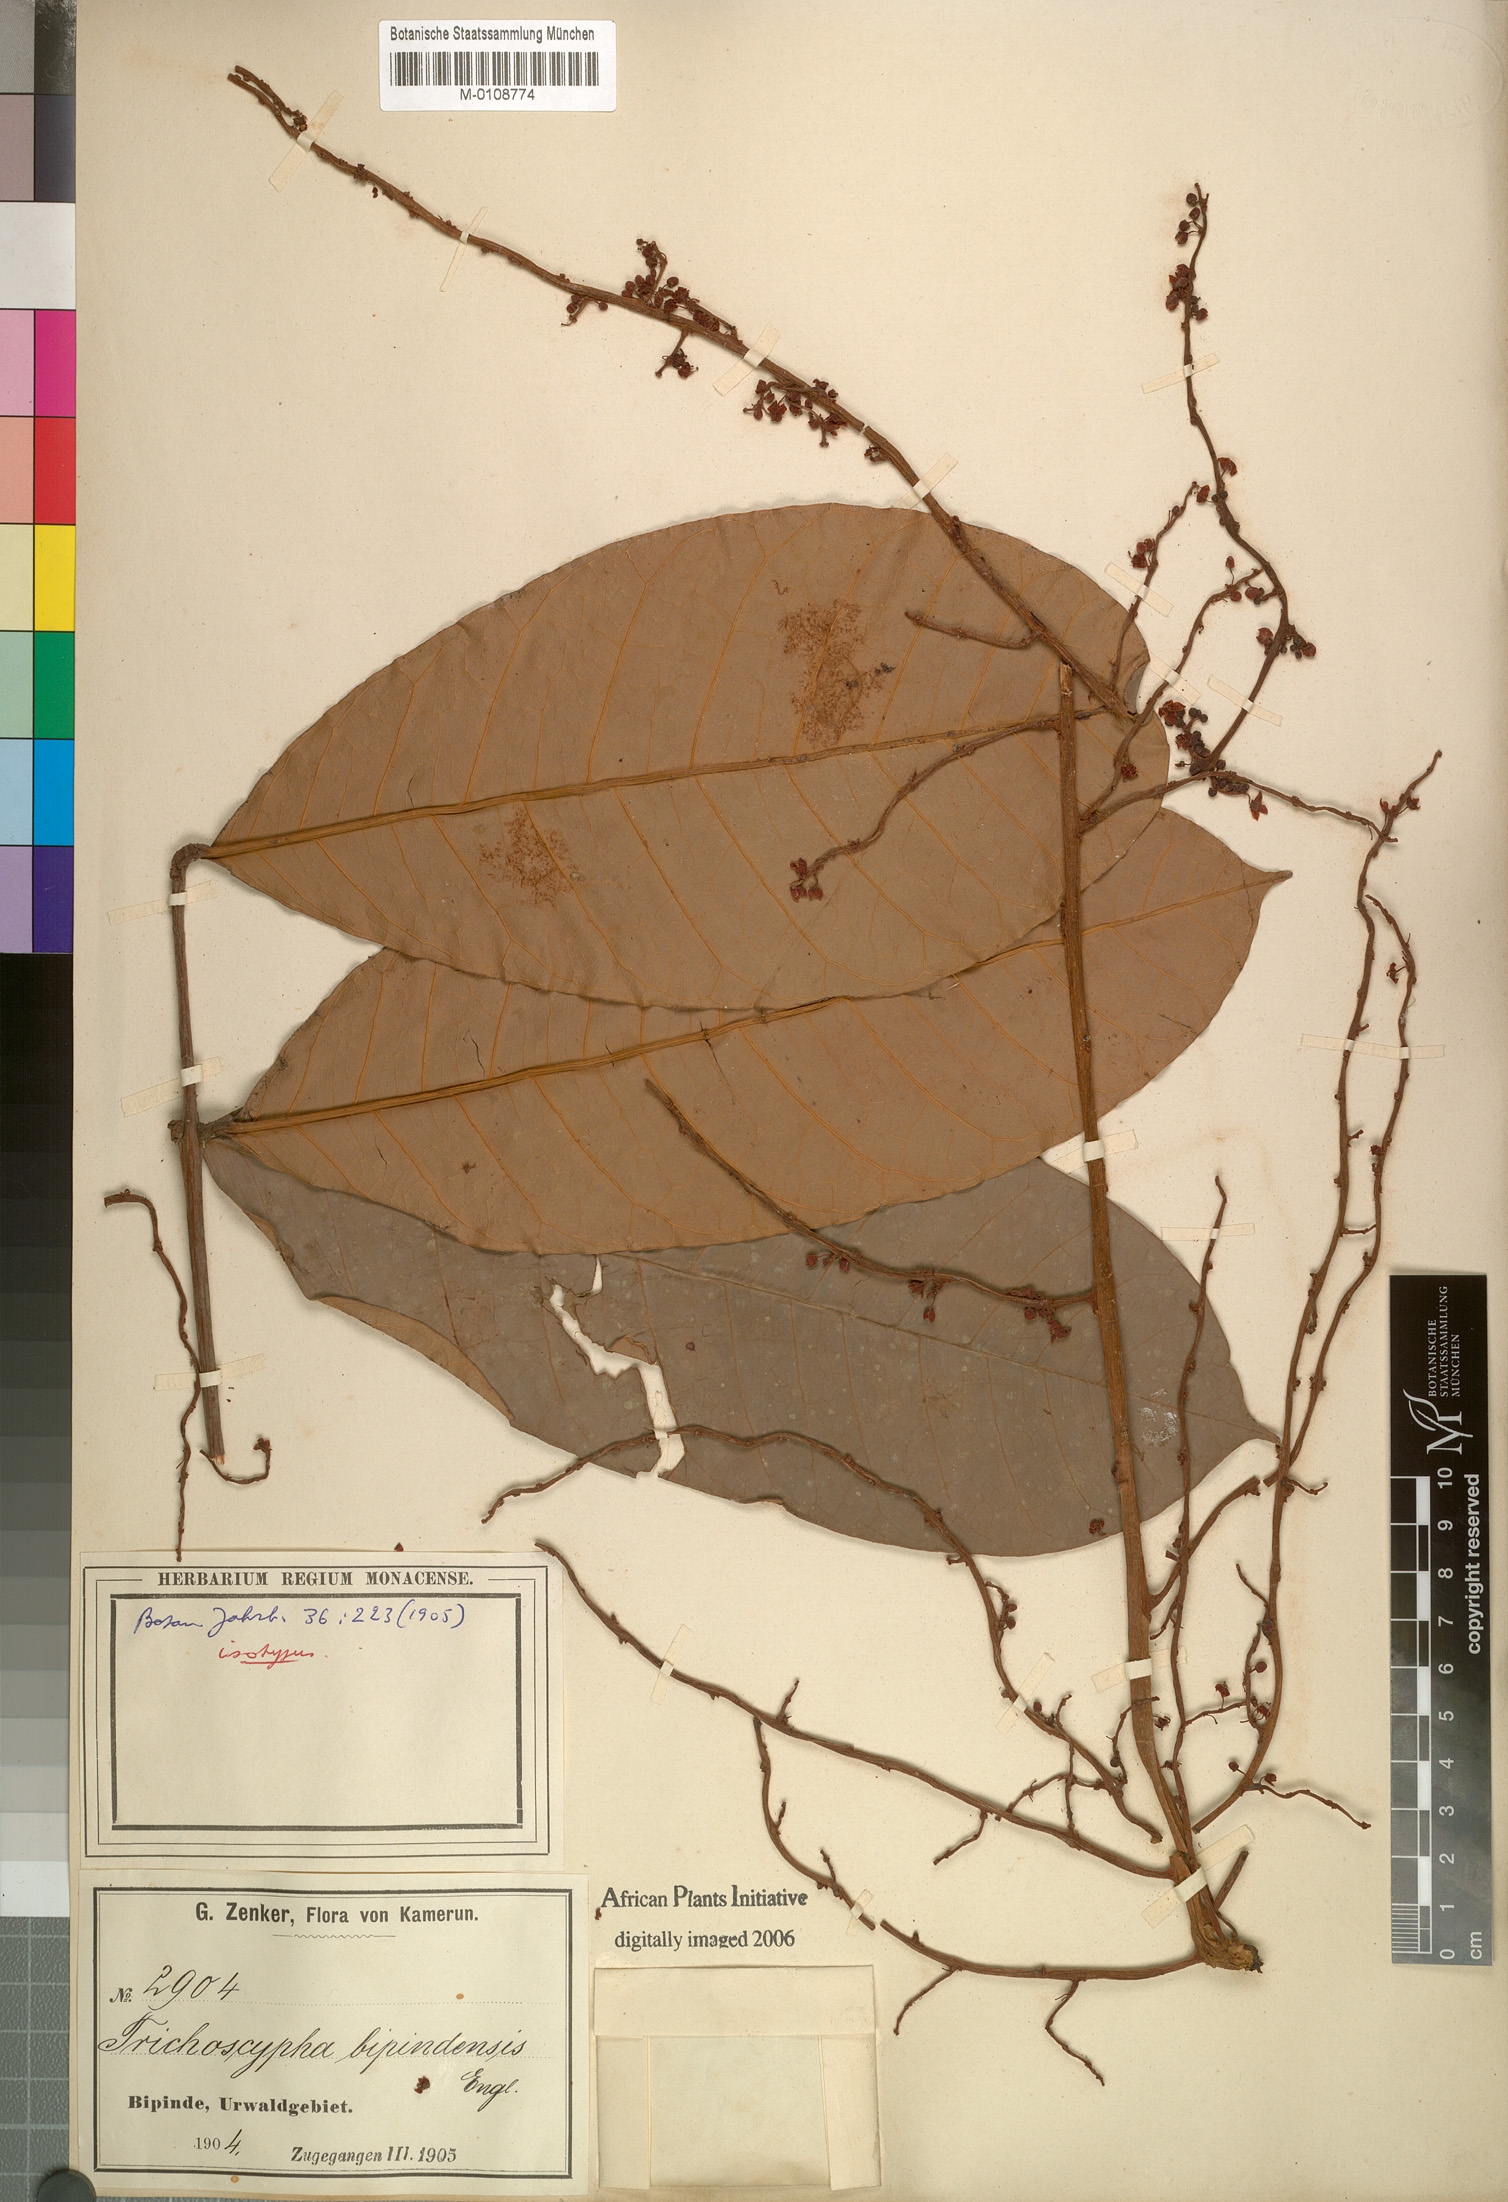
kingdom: Plantae
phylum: Tracheophyta
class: Magnoliopsida
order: Sapindales
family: Anacardiaceae
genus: Trichoscypha
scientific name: Trichoscypha oliveri
